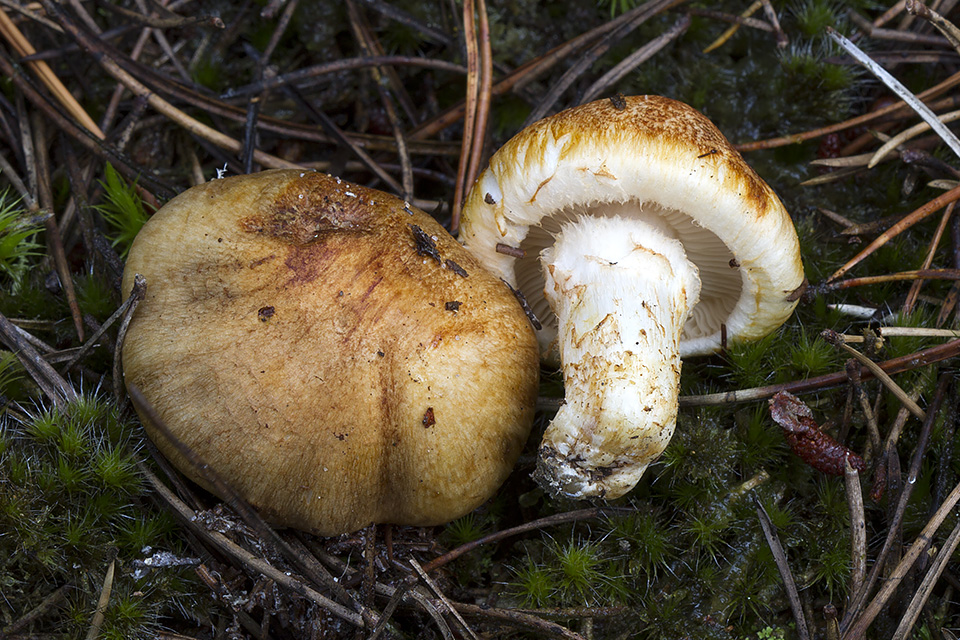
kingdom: Fungi
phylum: Basidiomycota
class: Agaricomycetes
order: Agaricales
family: Tricholomataceae
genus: Tricholoma
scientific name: Tricholoma focale
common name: halsbånd-ridderhat
